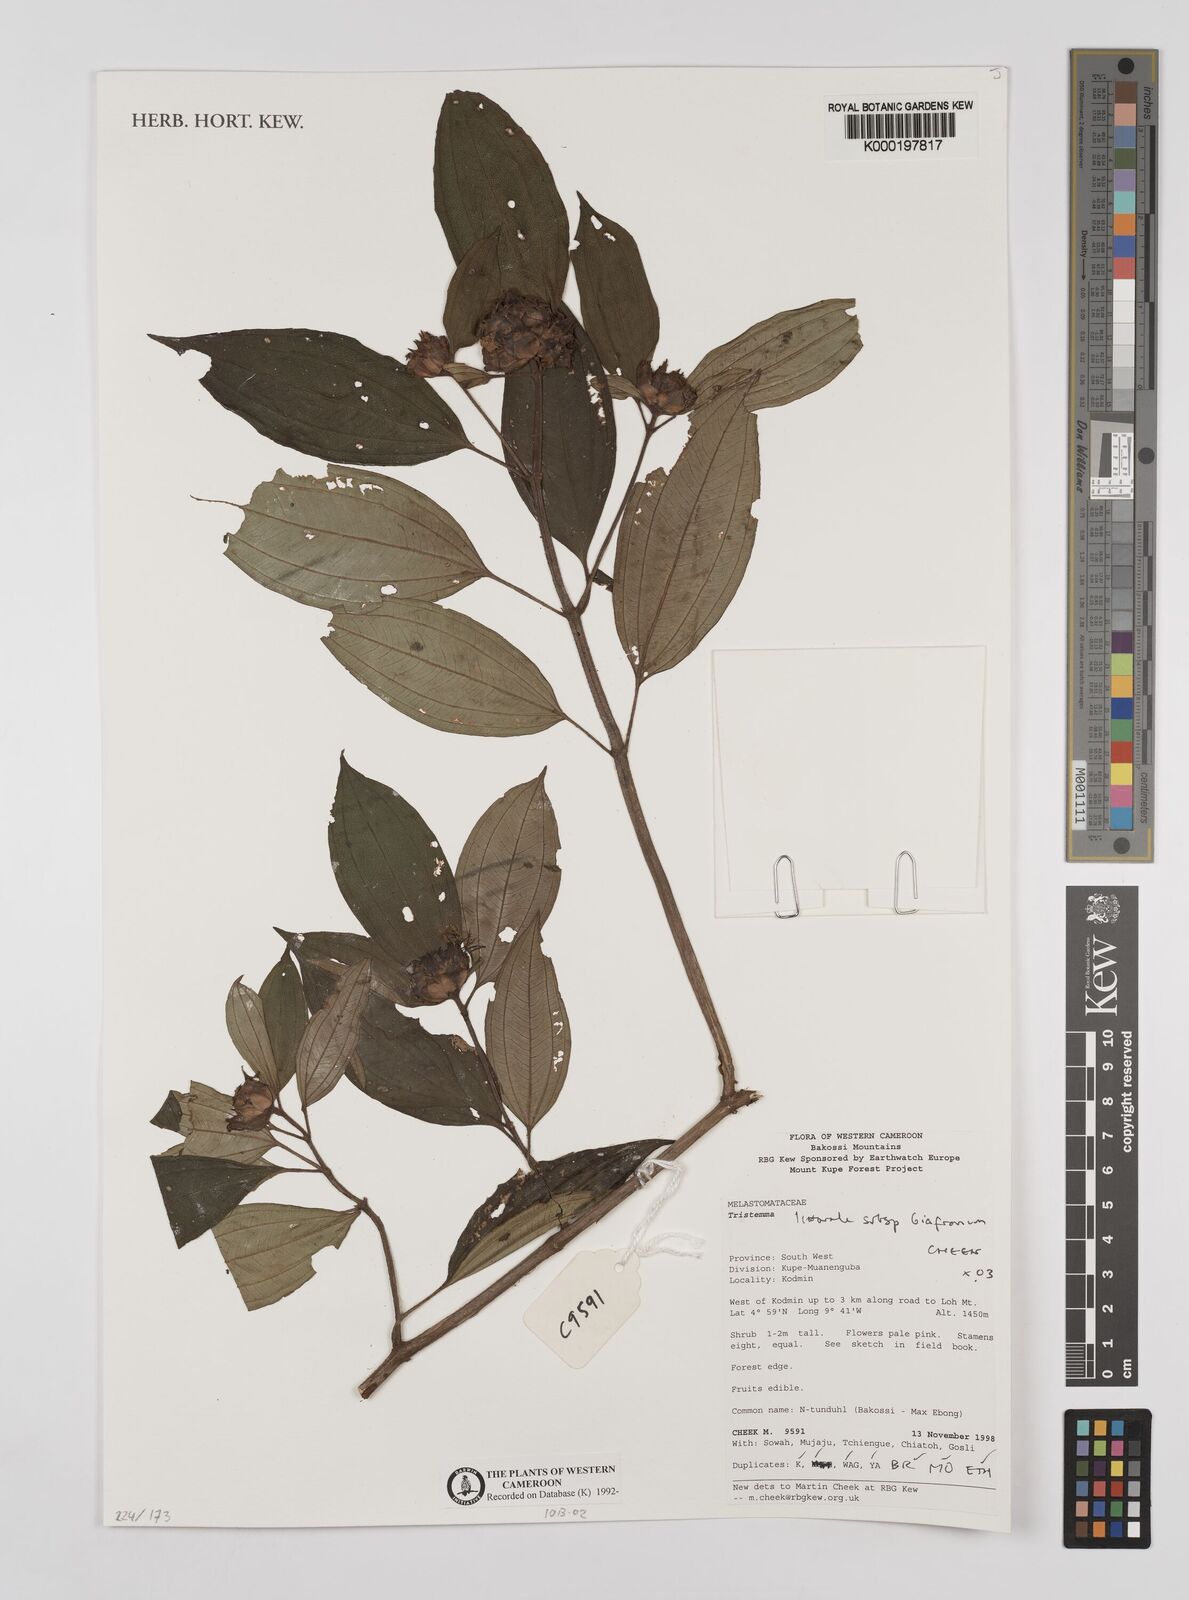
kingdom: Plantae
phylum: Tracheophyta
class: Magnoliopsida
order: Myrtales
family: Melastomataceae
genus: Tristemma
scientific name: Tristemma littorale
